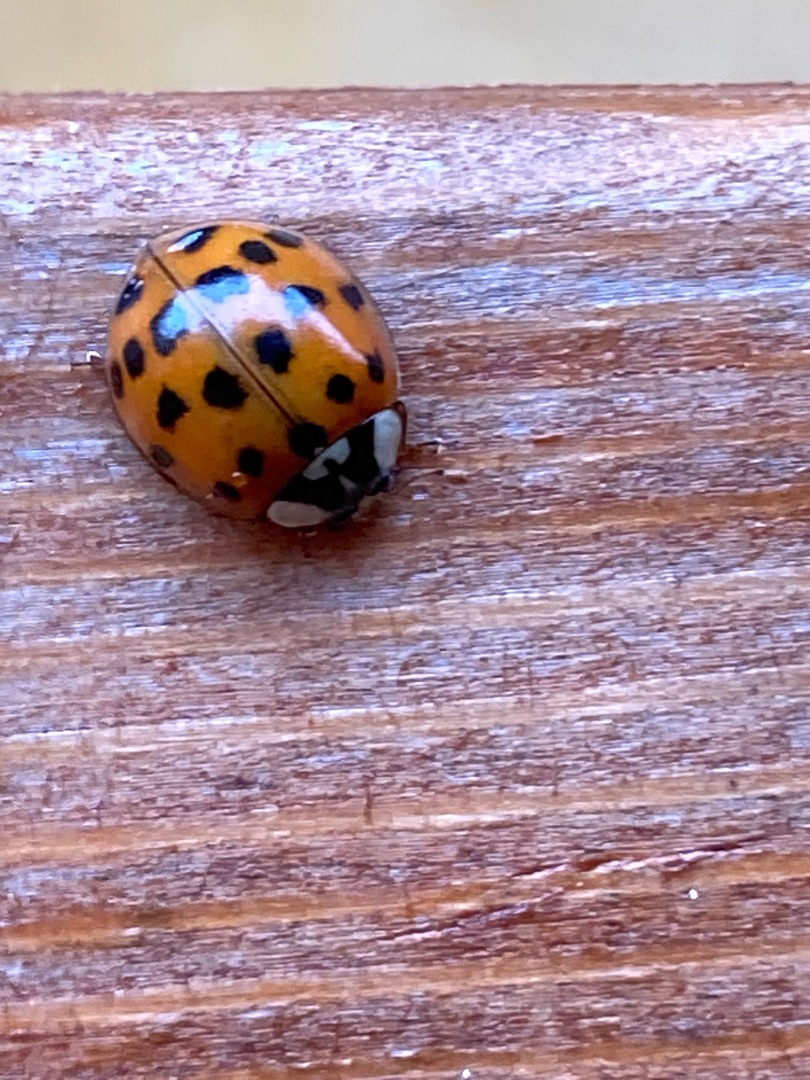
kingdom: Animalia
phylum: Arthropoda
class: Insecta
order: Coleoptera
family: Coccinellidae
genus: Harmonia
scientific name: Harmonia axyridis
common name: Harlekinmariehøne
